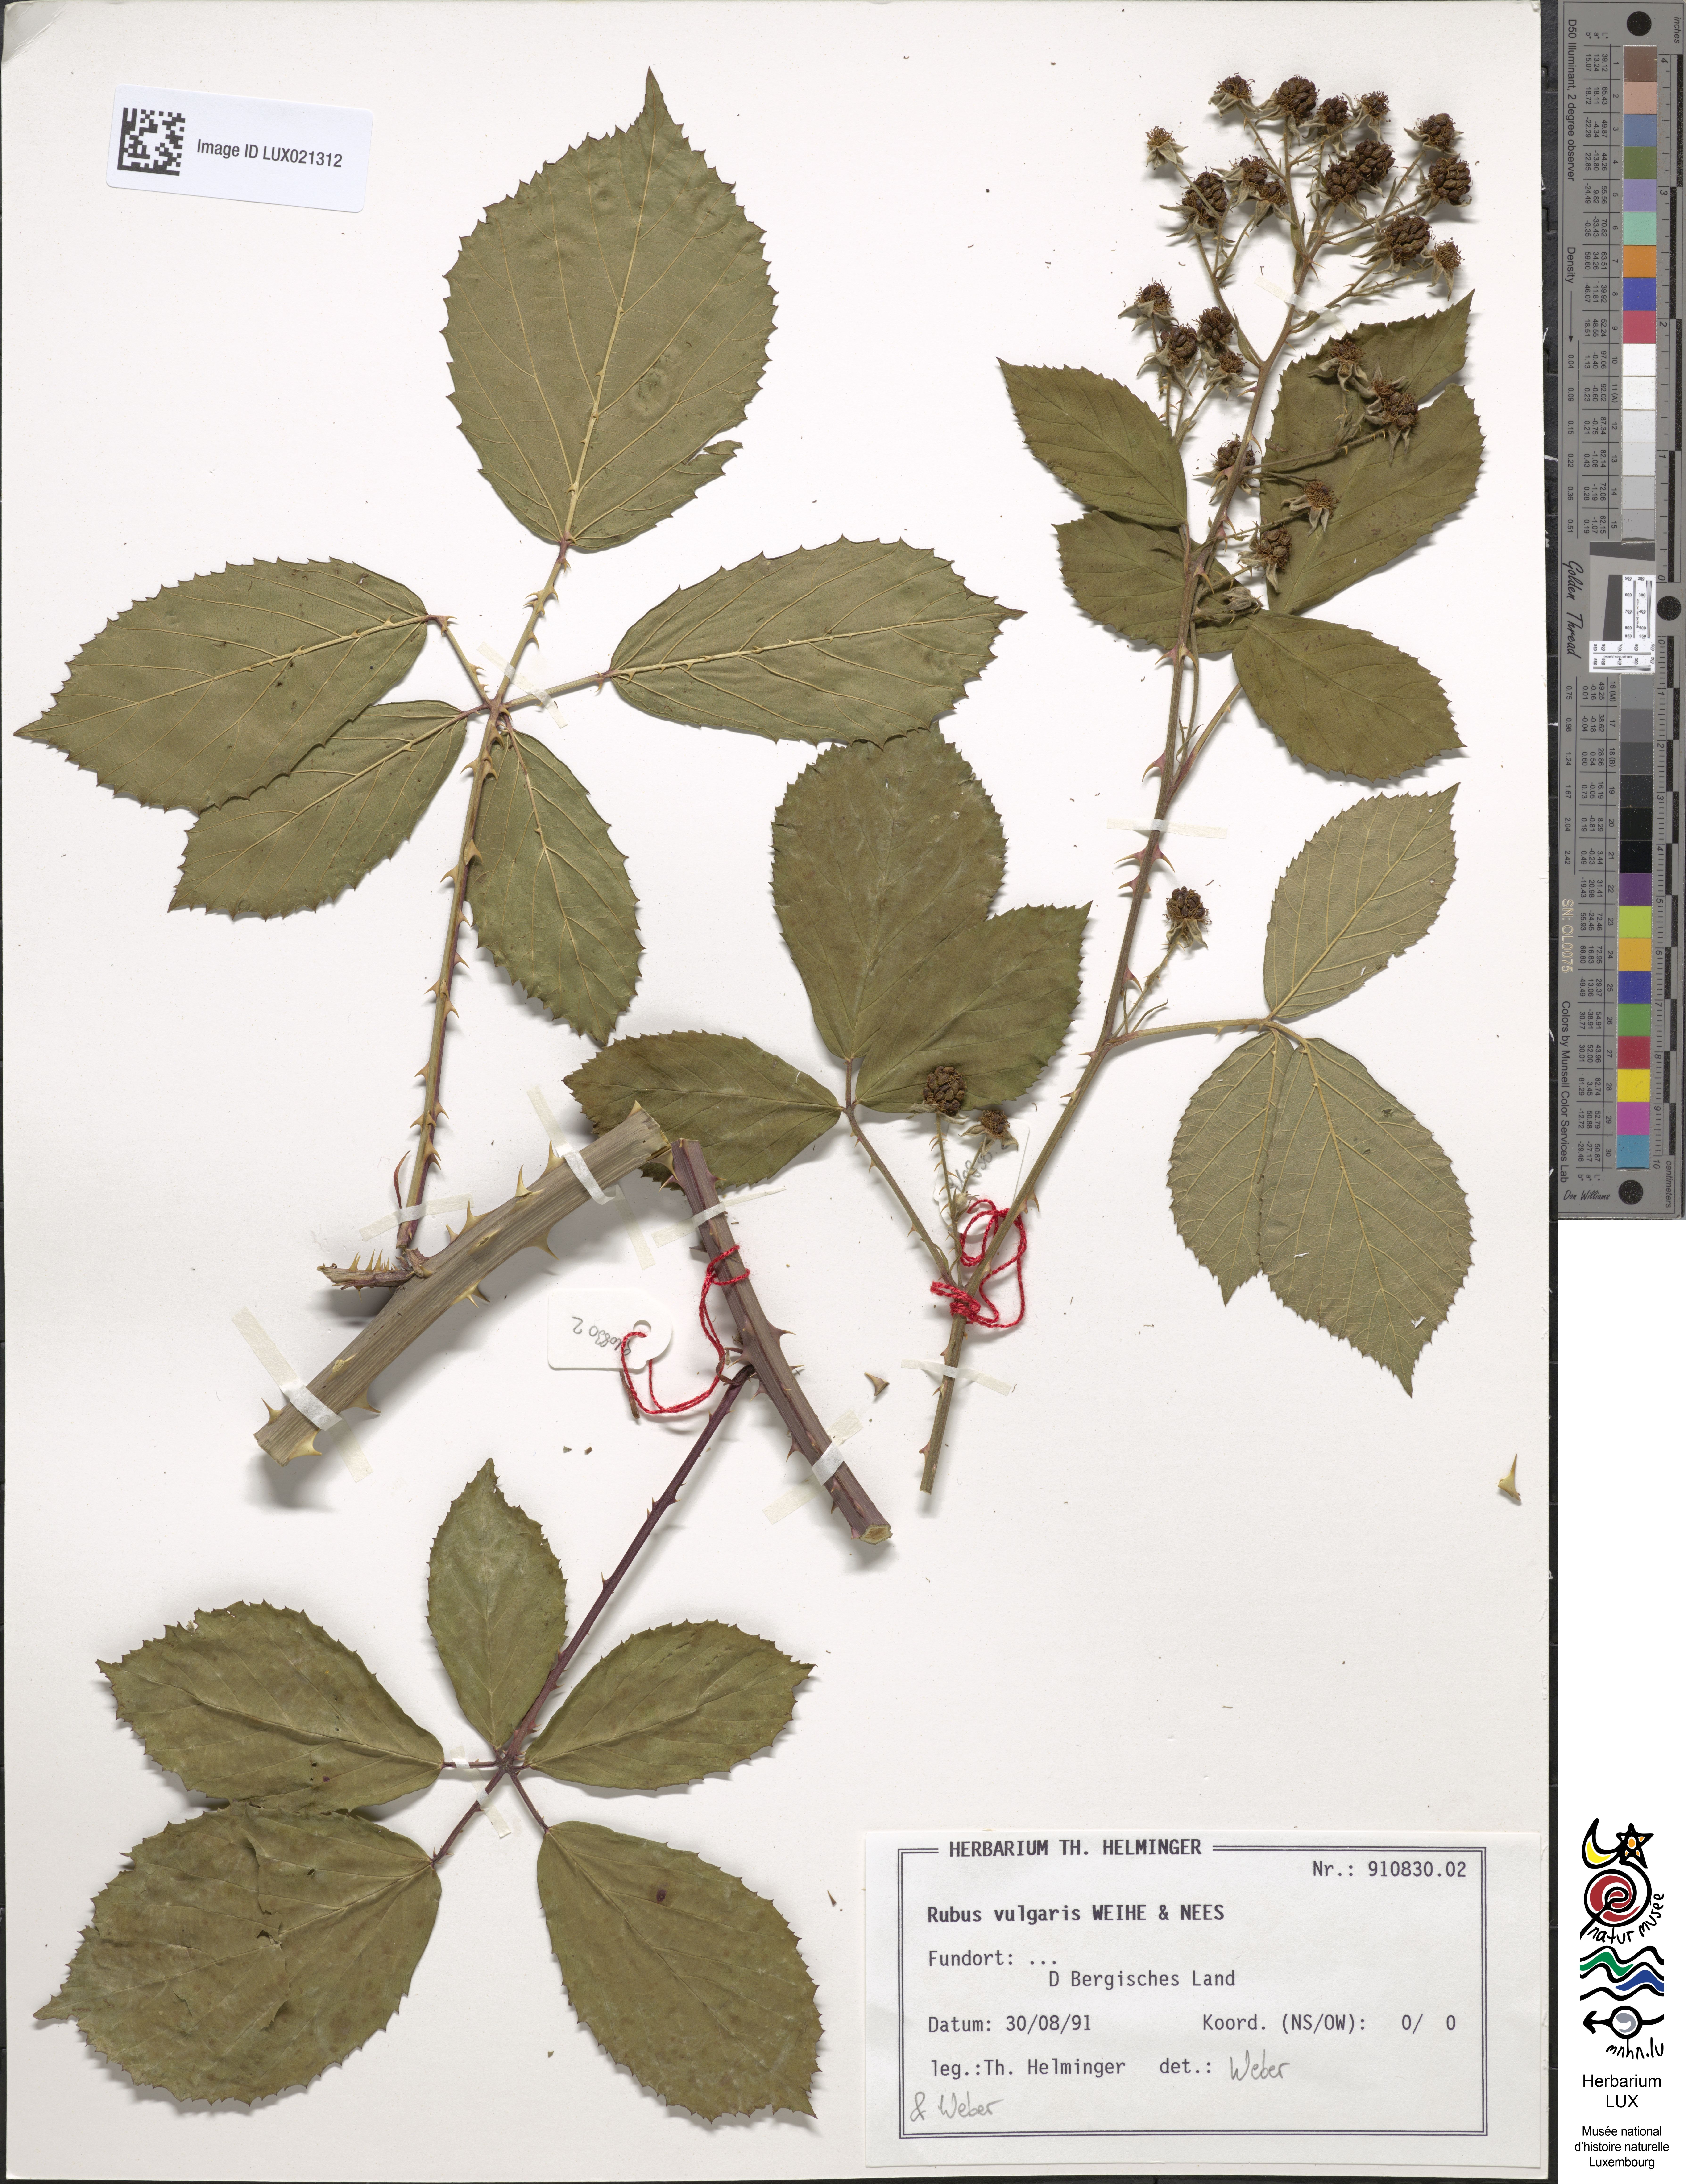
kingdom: Plantae
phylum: Tracheophyta
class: Magnoliopsida
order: Rosales
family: Rosaceae
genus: Rubus
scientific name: Rubus aschoffii
